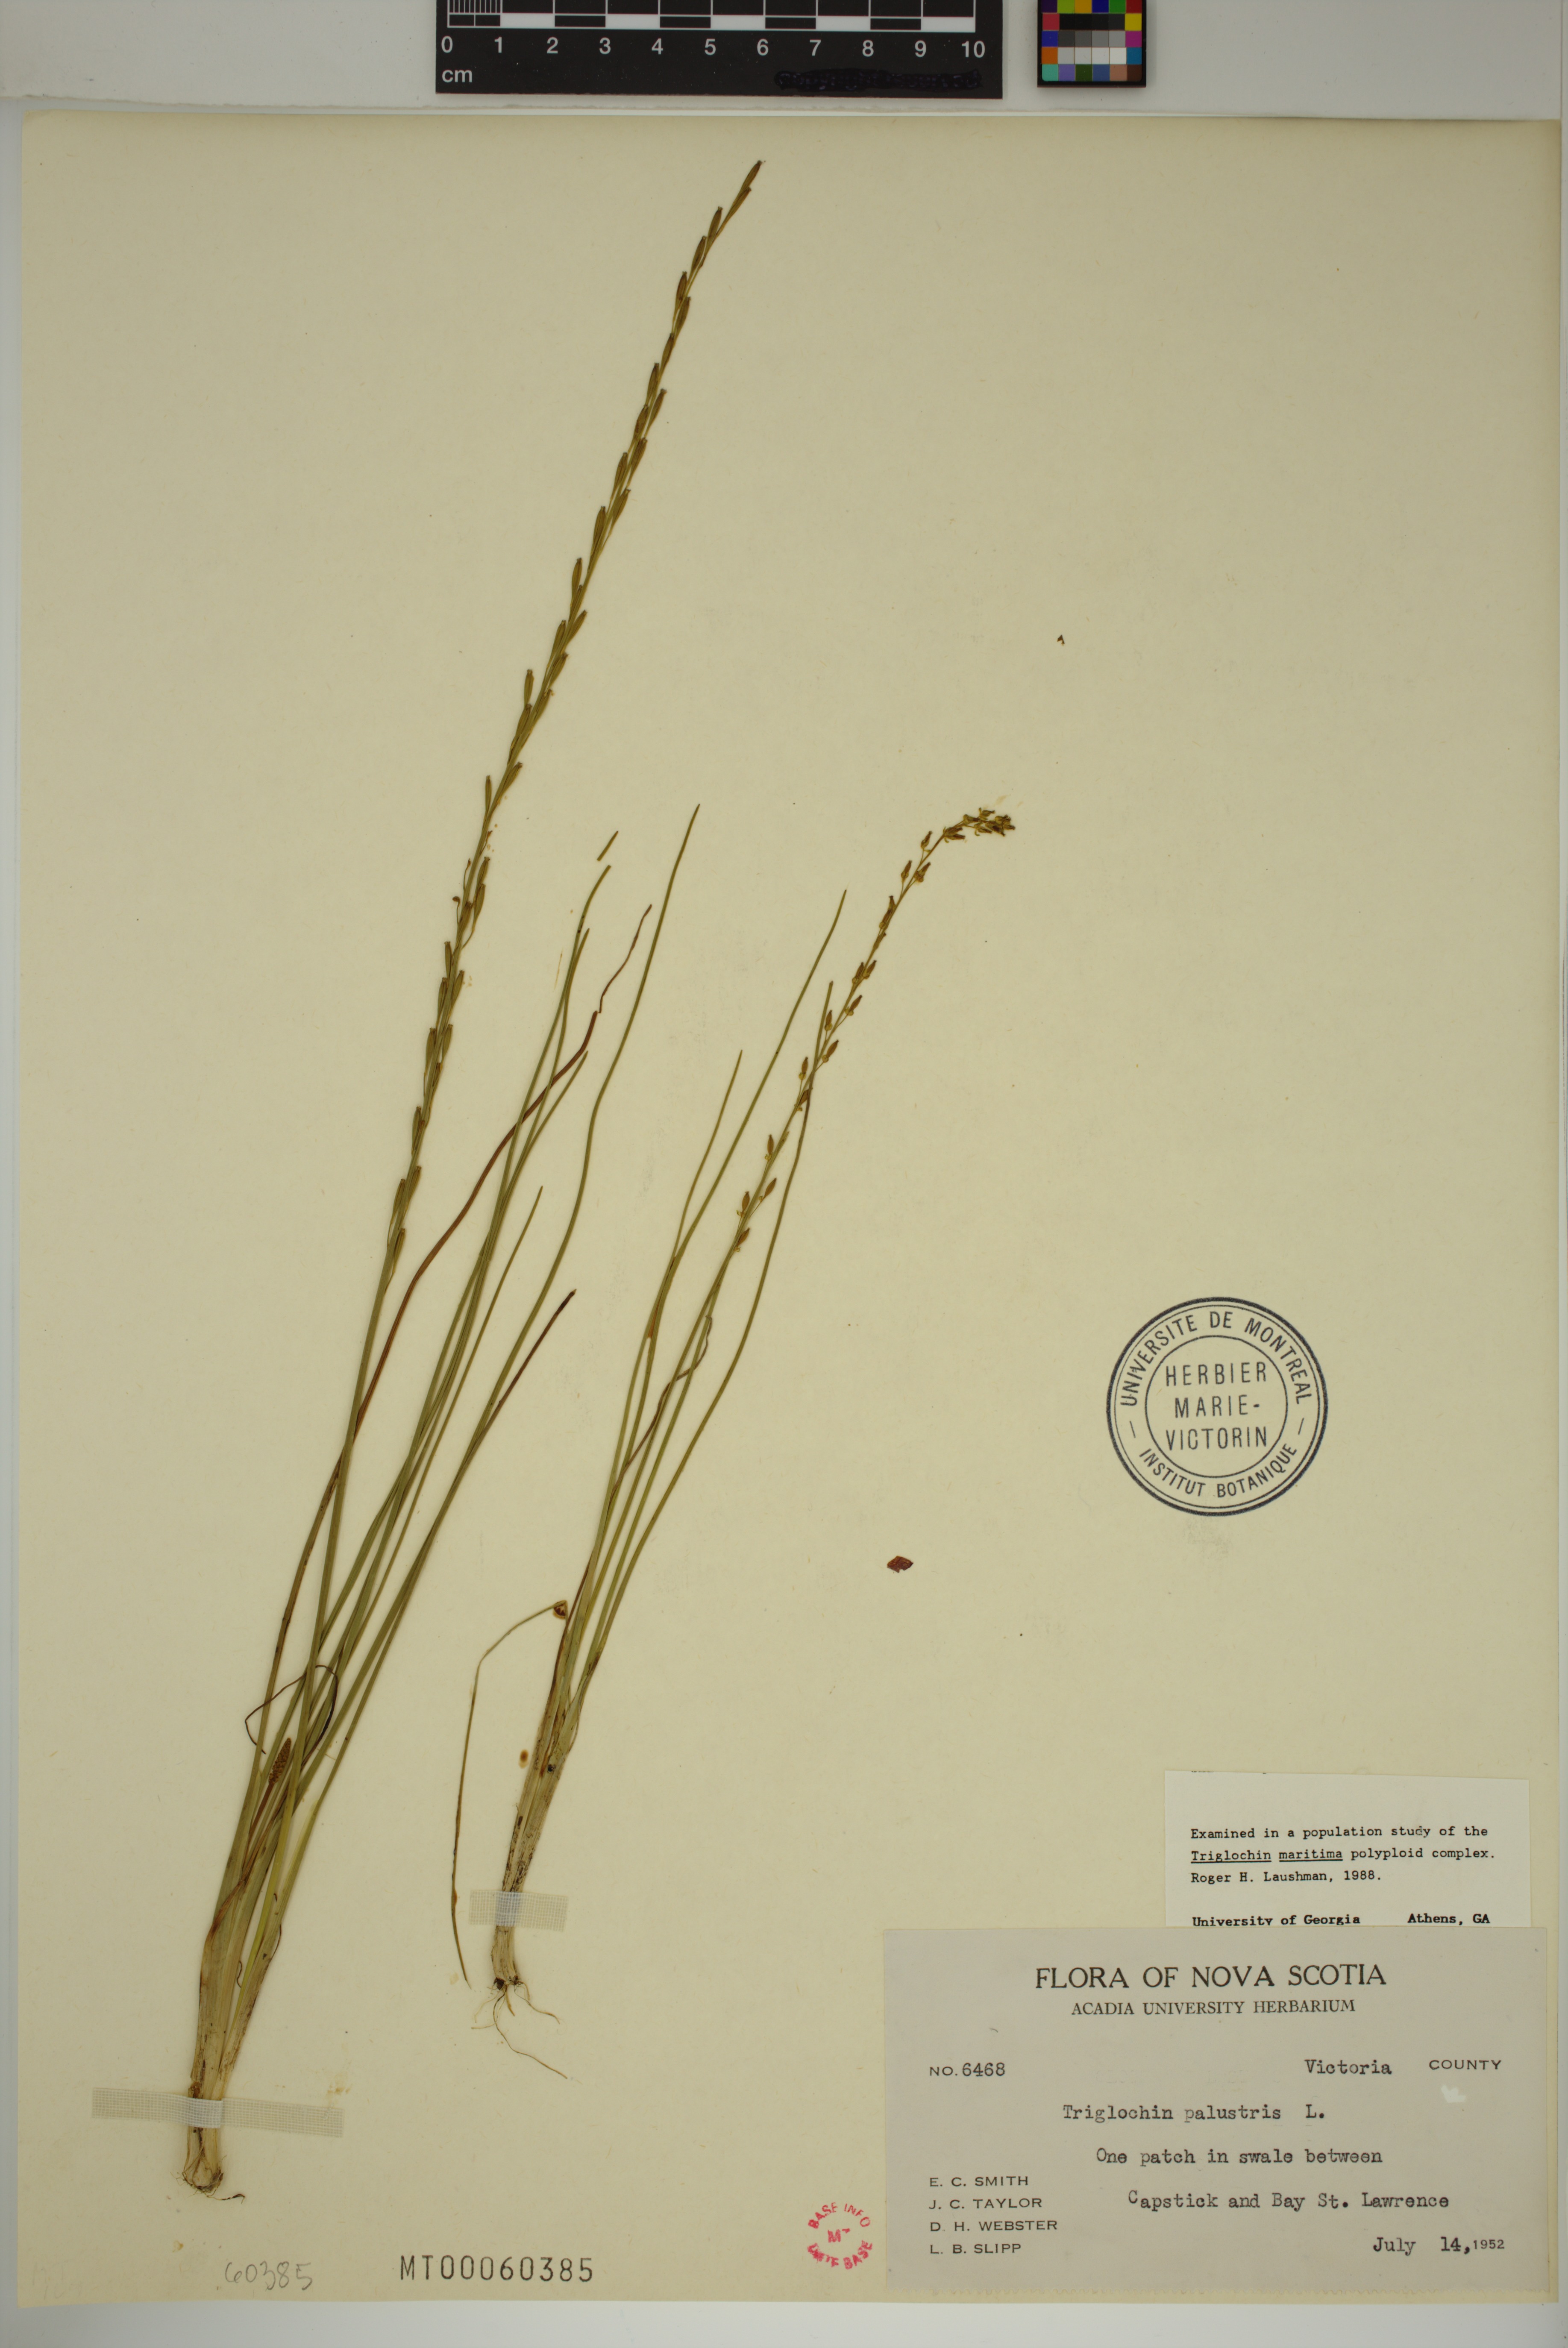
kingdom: Plantae
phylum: Tracheophyta
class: Liliopsida
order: Alismatales
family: Juncaginaceae
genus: Triglochin
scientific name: Triglochin palustris
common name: Marsh arrowgrass
